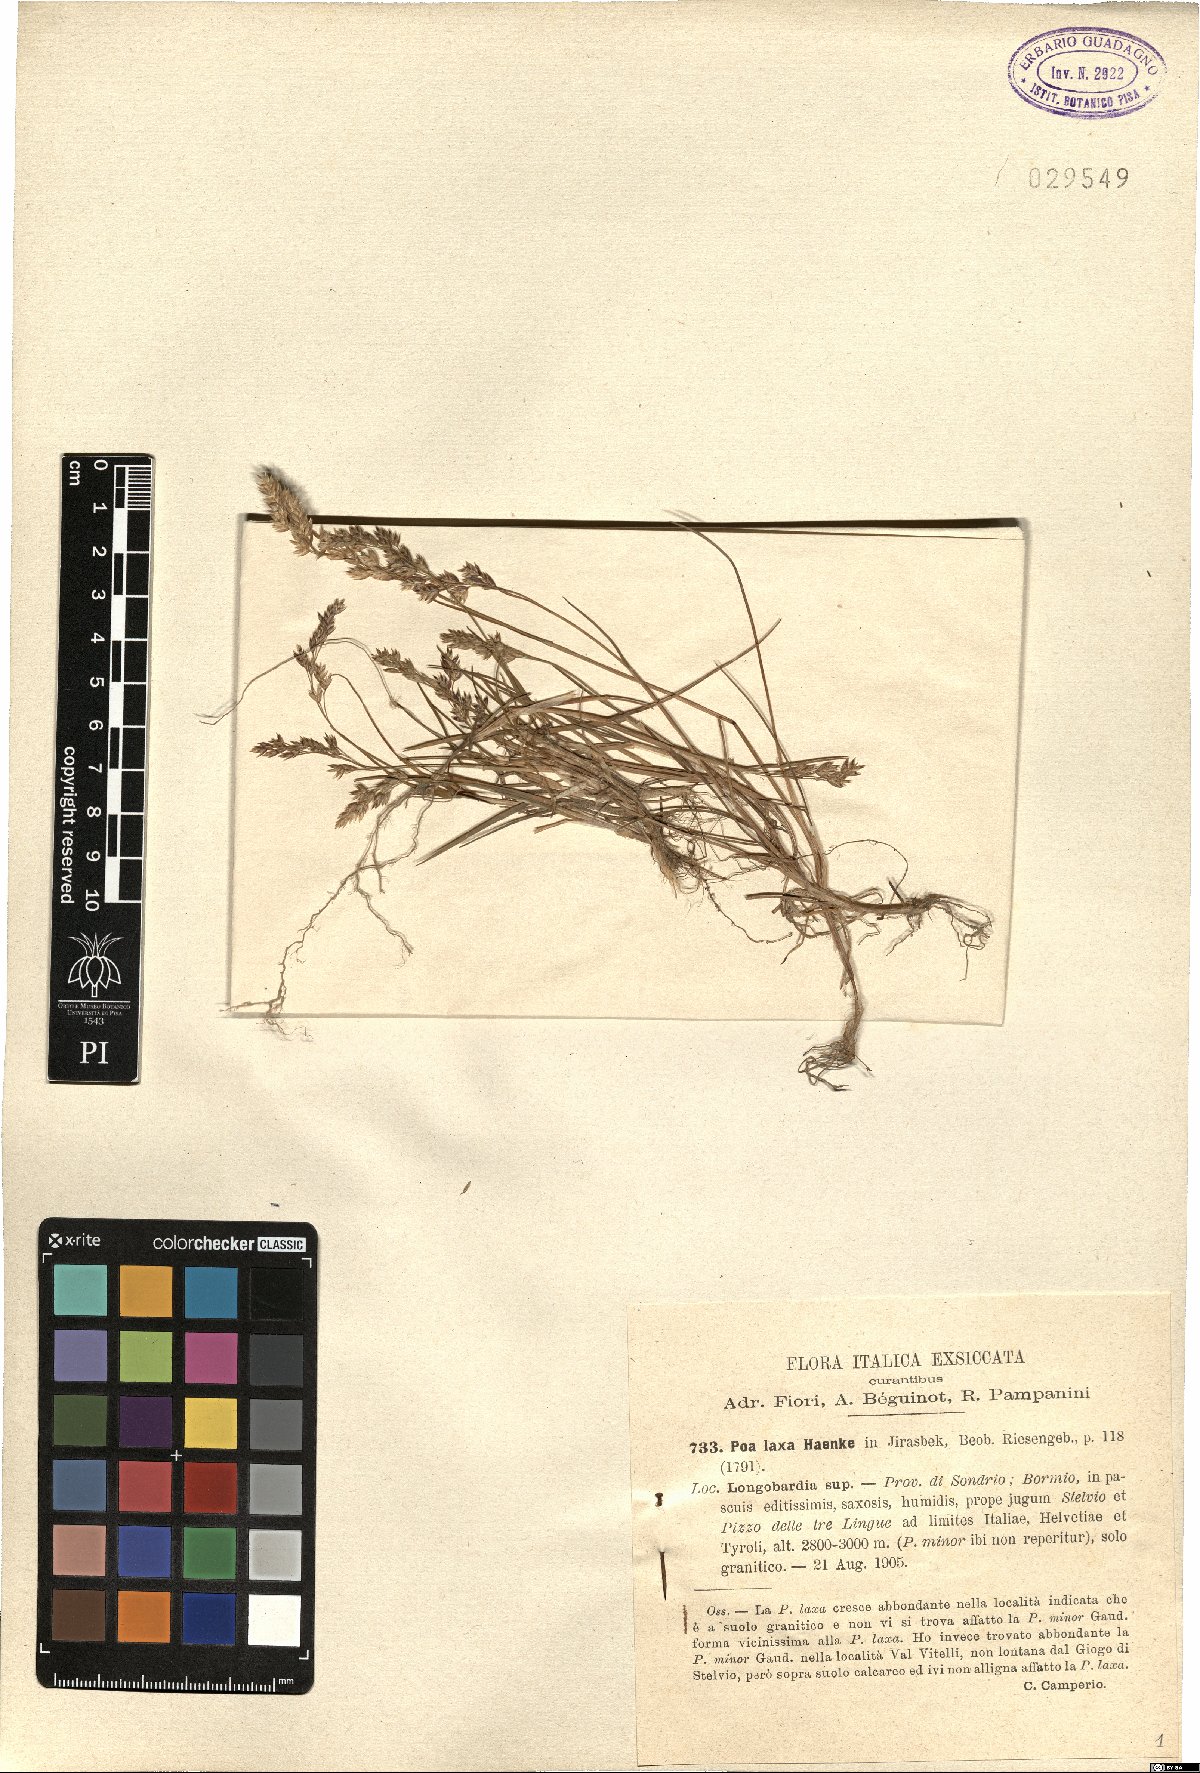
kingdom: Plantae
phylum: Tracheophyta
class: Liliopsida
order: Poales
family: Poaceae
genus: Poa
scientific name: Poa laxa
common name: Lax bluegrass
